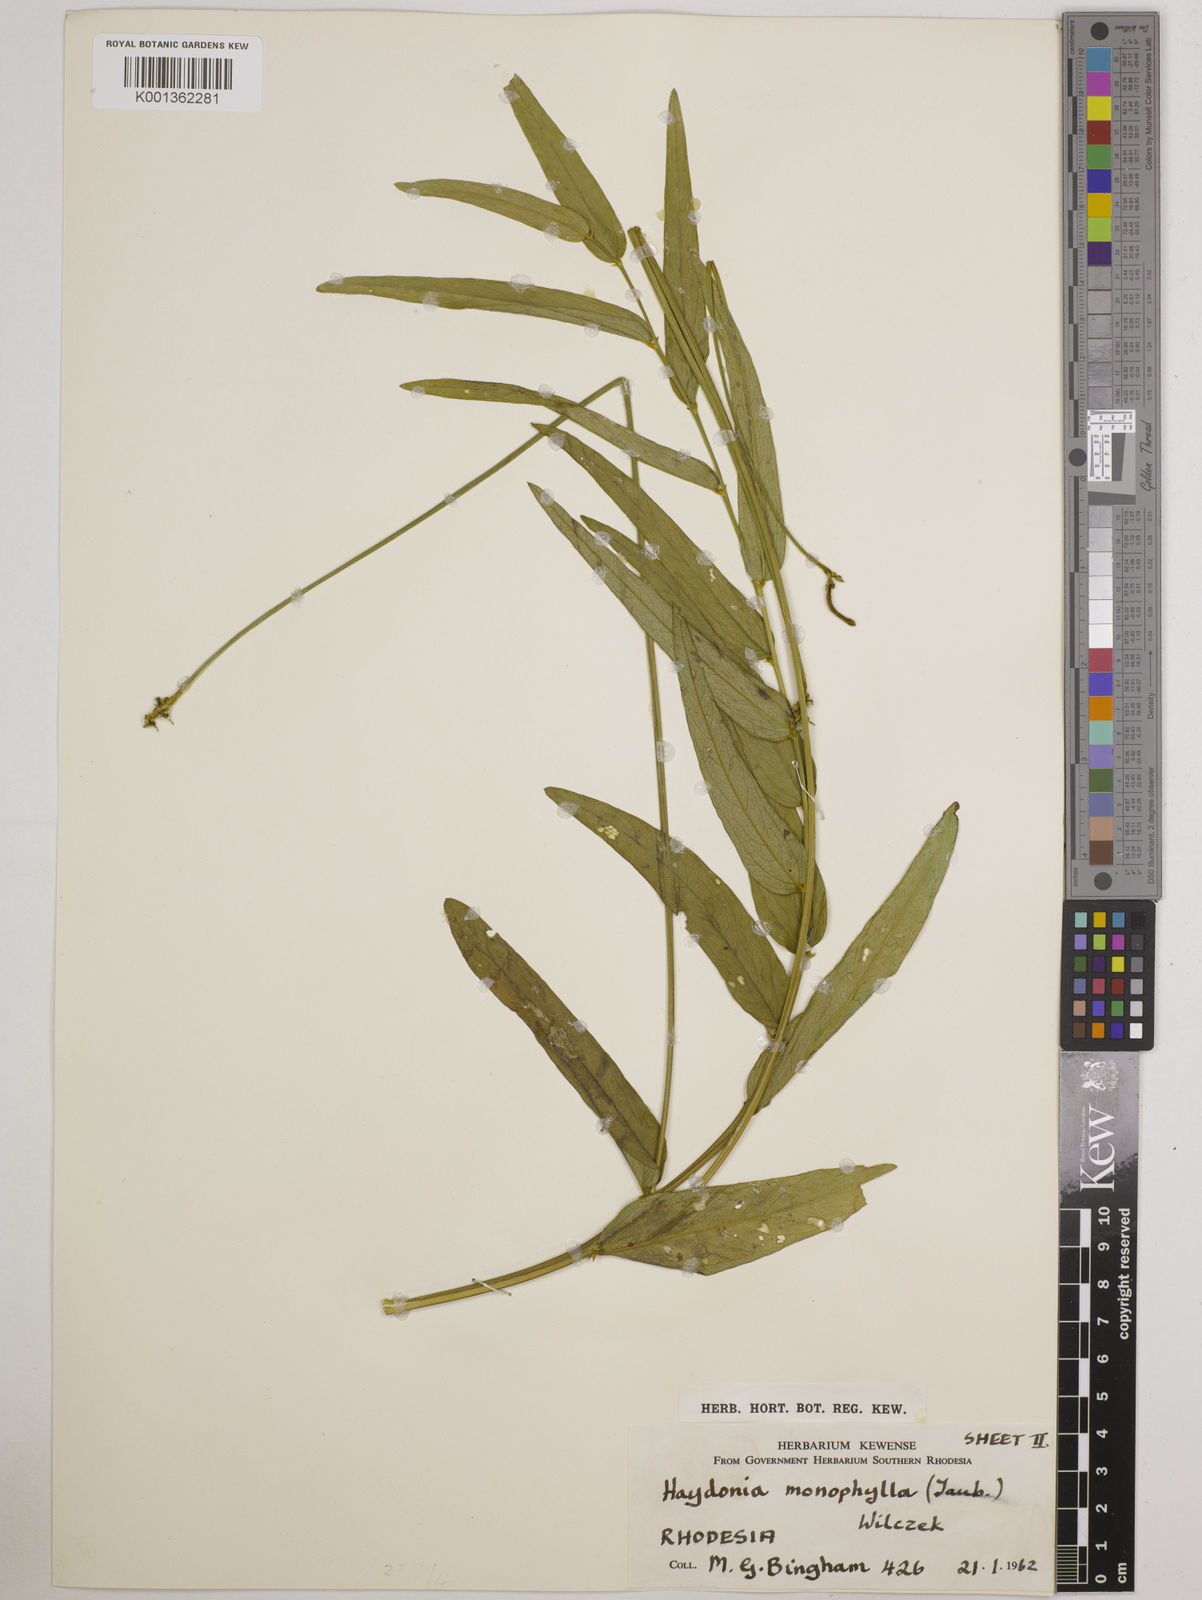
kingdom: Plantae
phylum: Tracheophyta
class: Magnoliopsida
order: Fabales
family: Fabaceae
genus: Vigna
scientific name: Vigna monophylla
